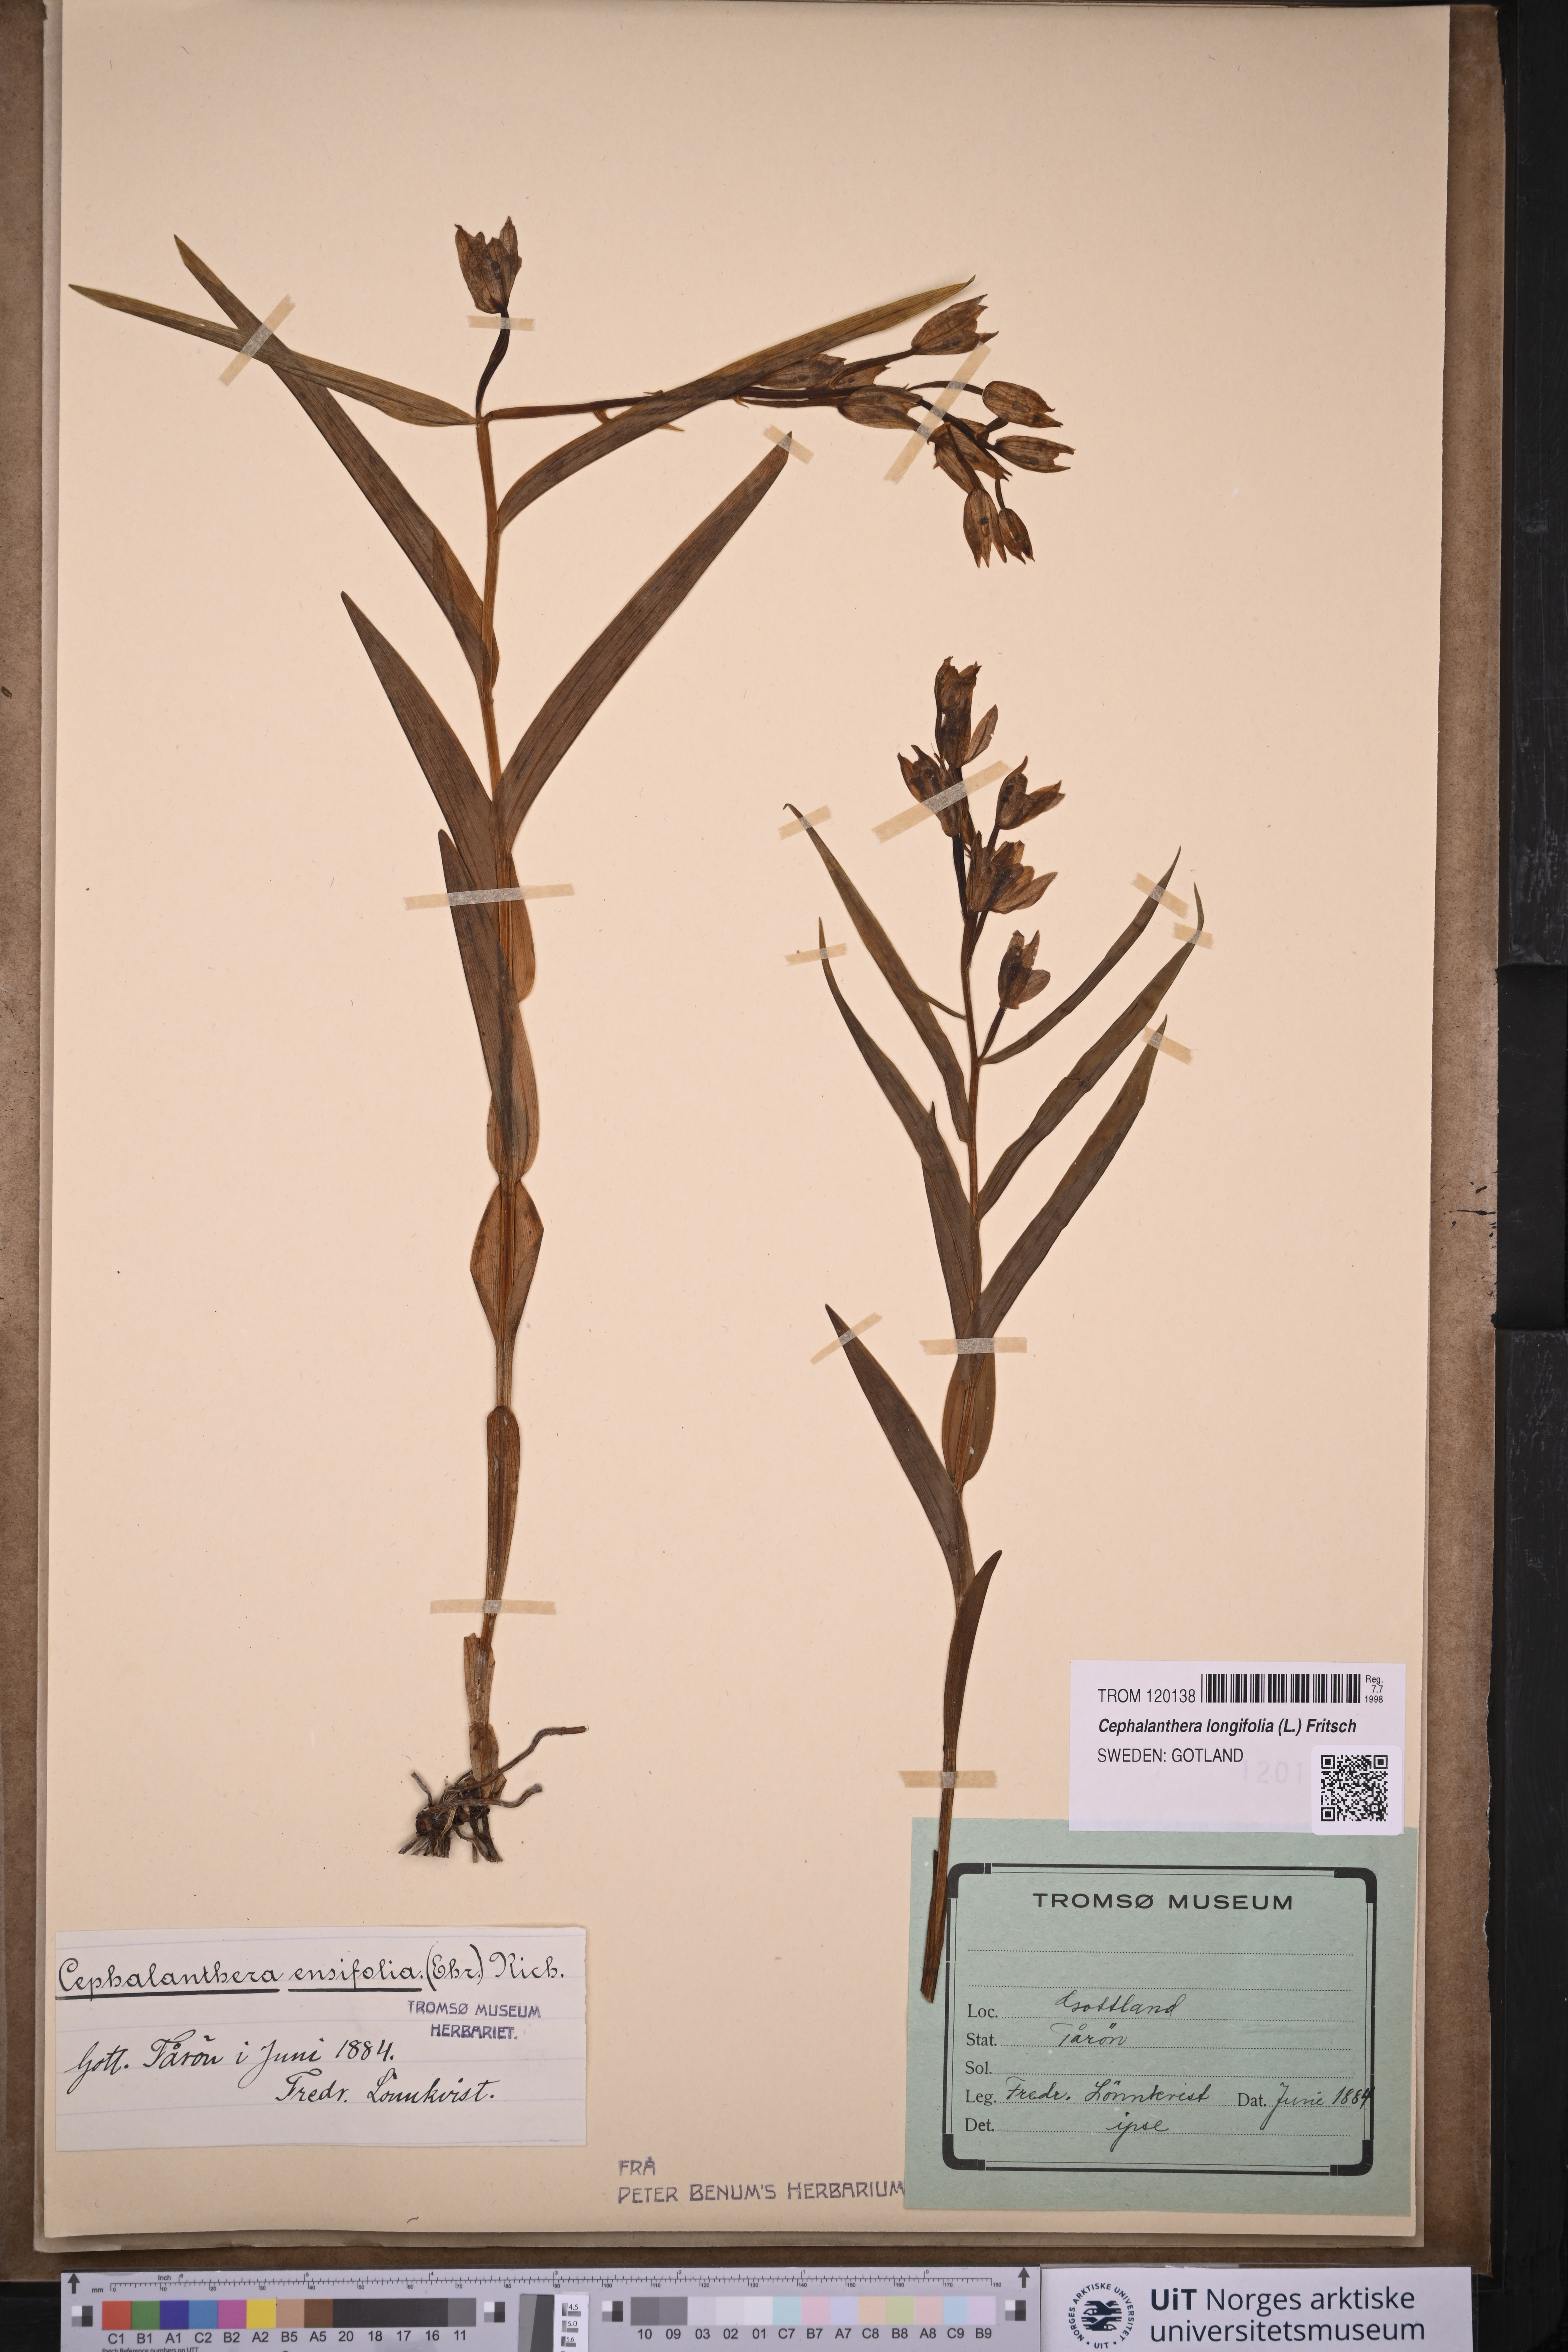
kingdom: Plantae
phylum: Tracheophyta
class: Liliopsida
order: Asparagales
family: Orchidaceae
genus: Cephalanthera
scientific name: Cephalanthera longifolia
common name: Narrow-leaved helleborine
